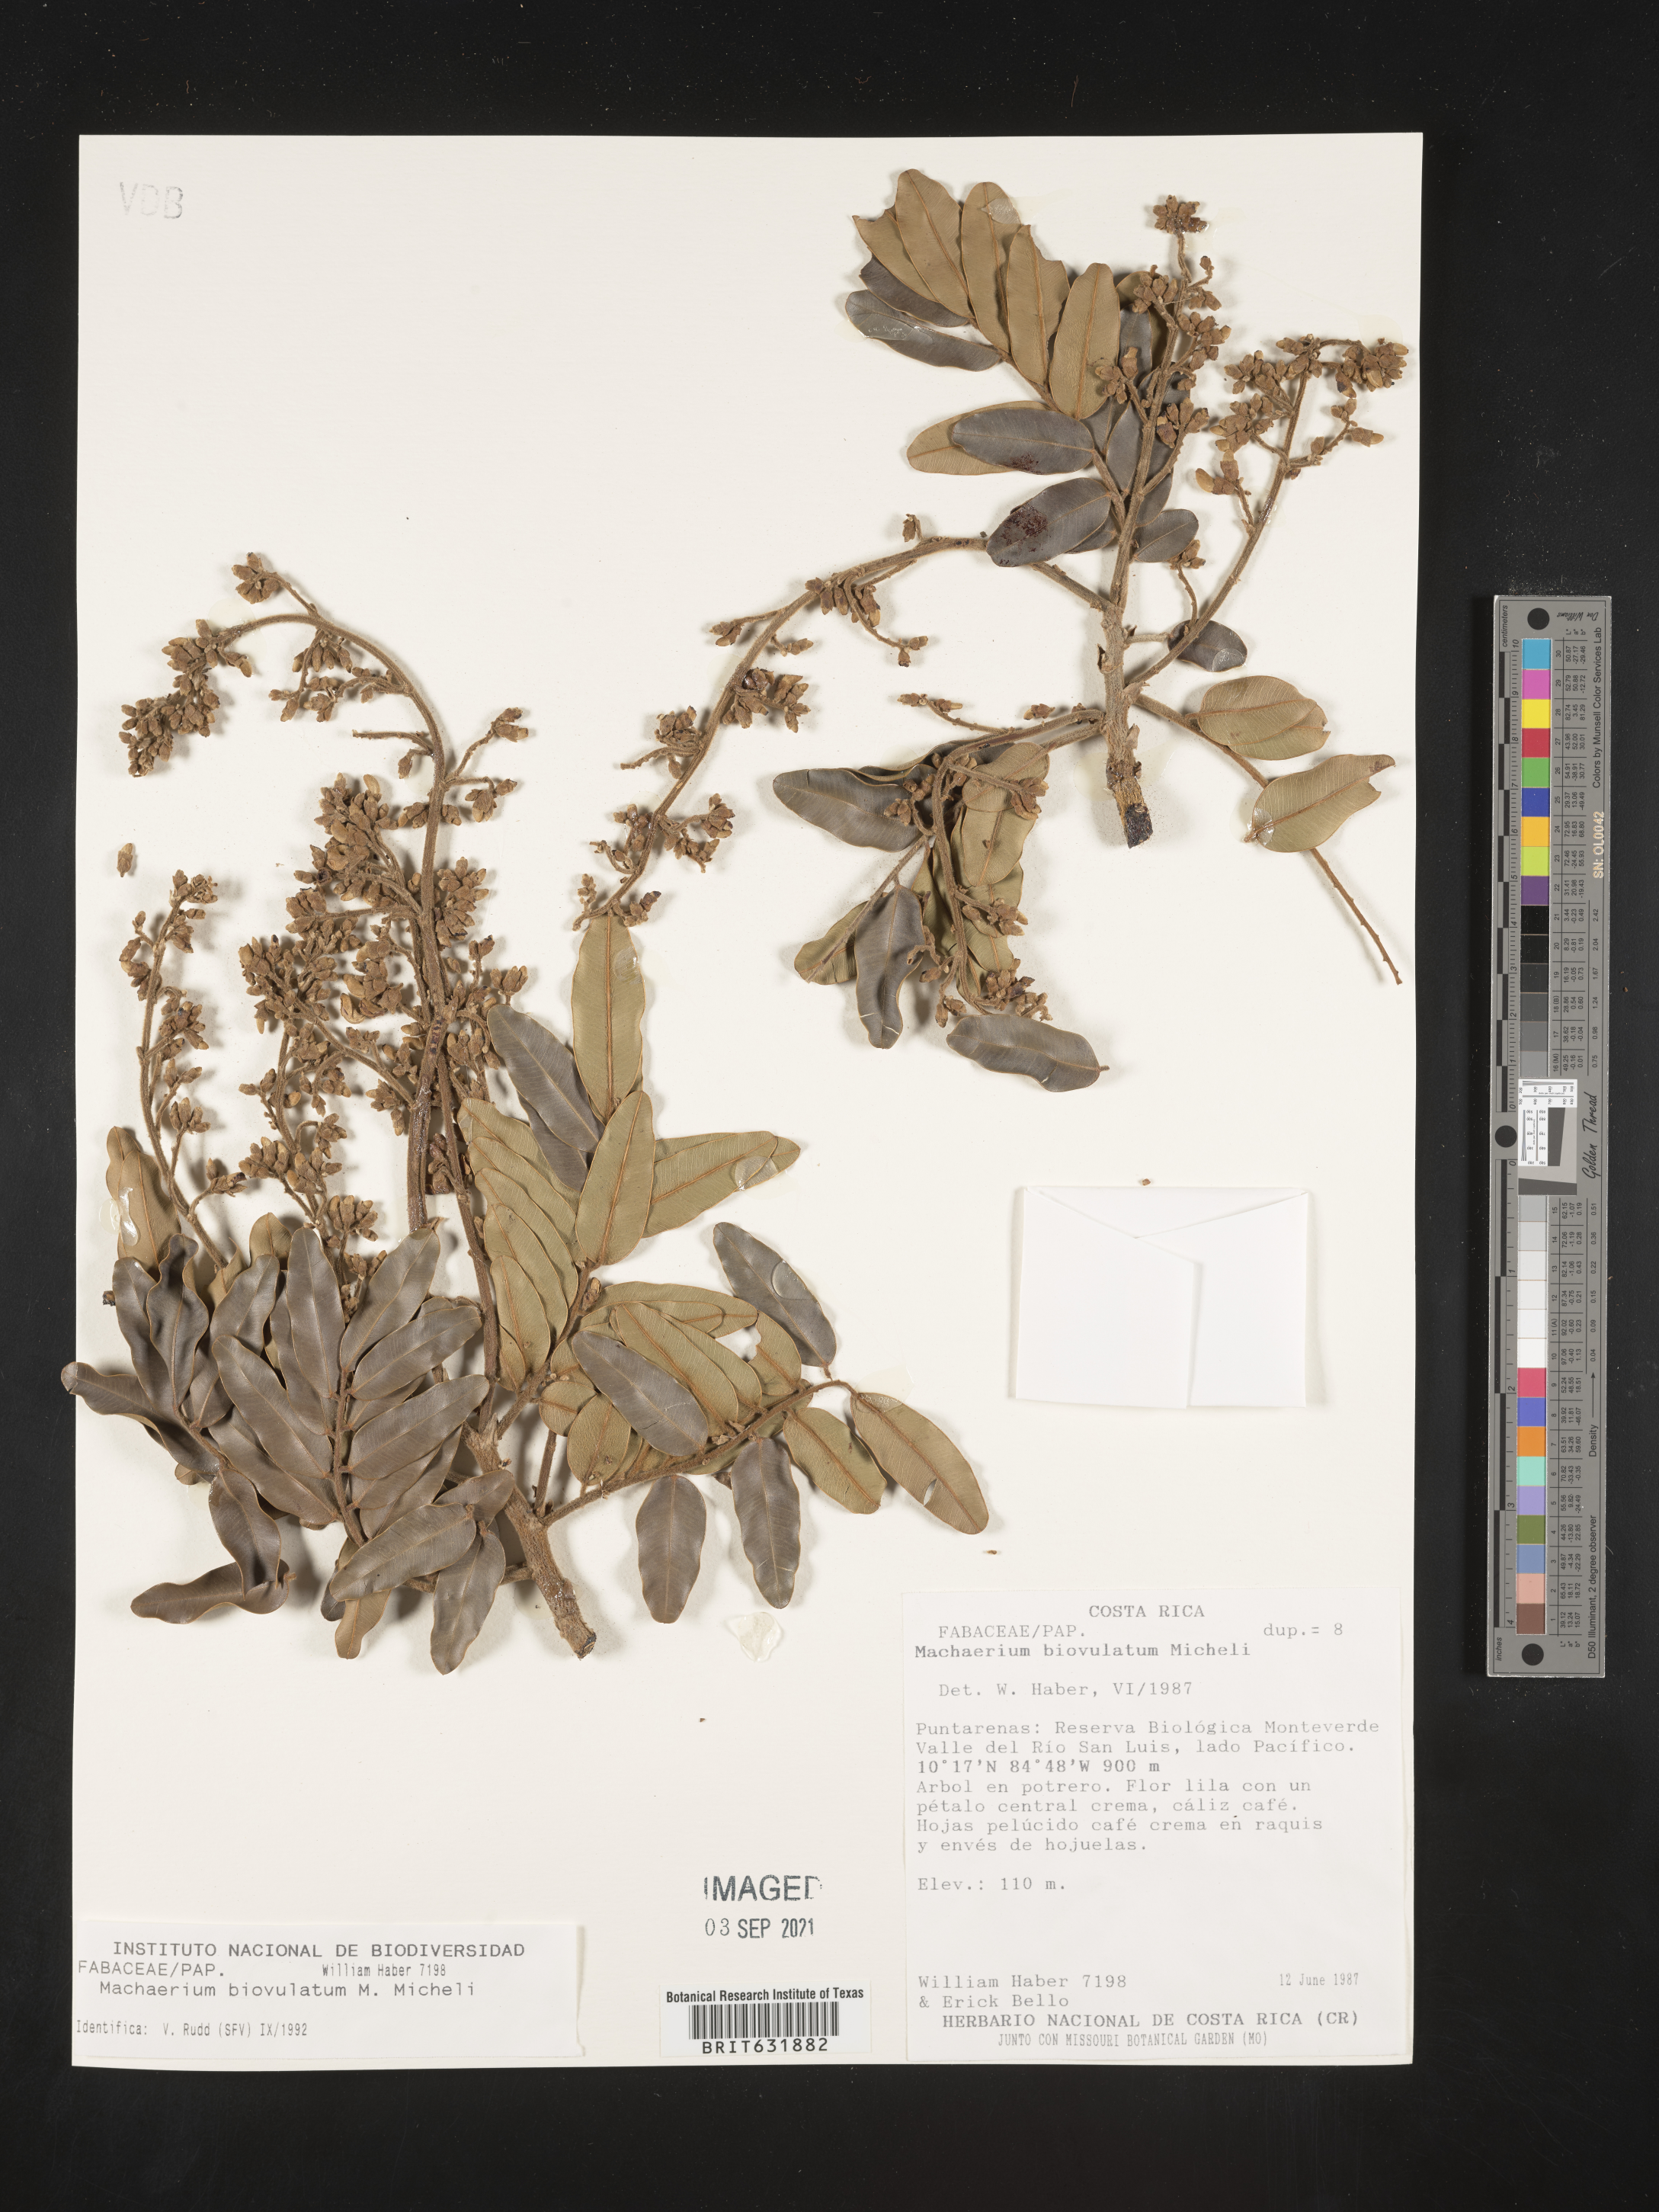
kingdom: Plantae
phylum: Tracheophyta
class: Magnoliopsida
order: Fabales
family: Fabaceae
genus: Machaerium
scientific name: Machaerium
